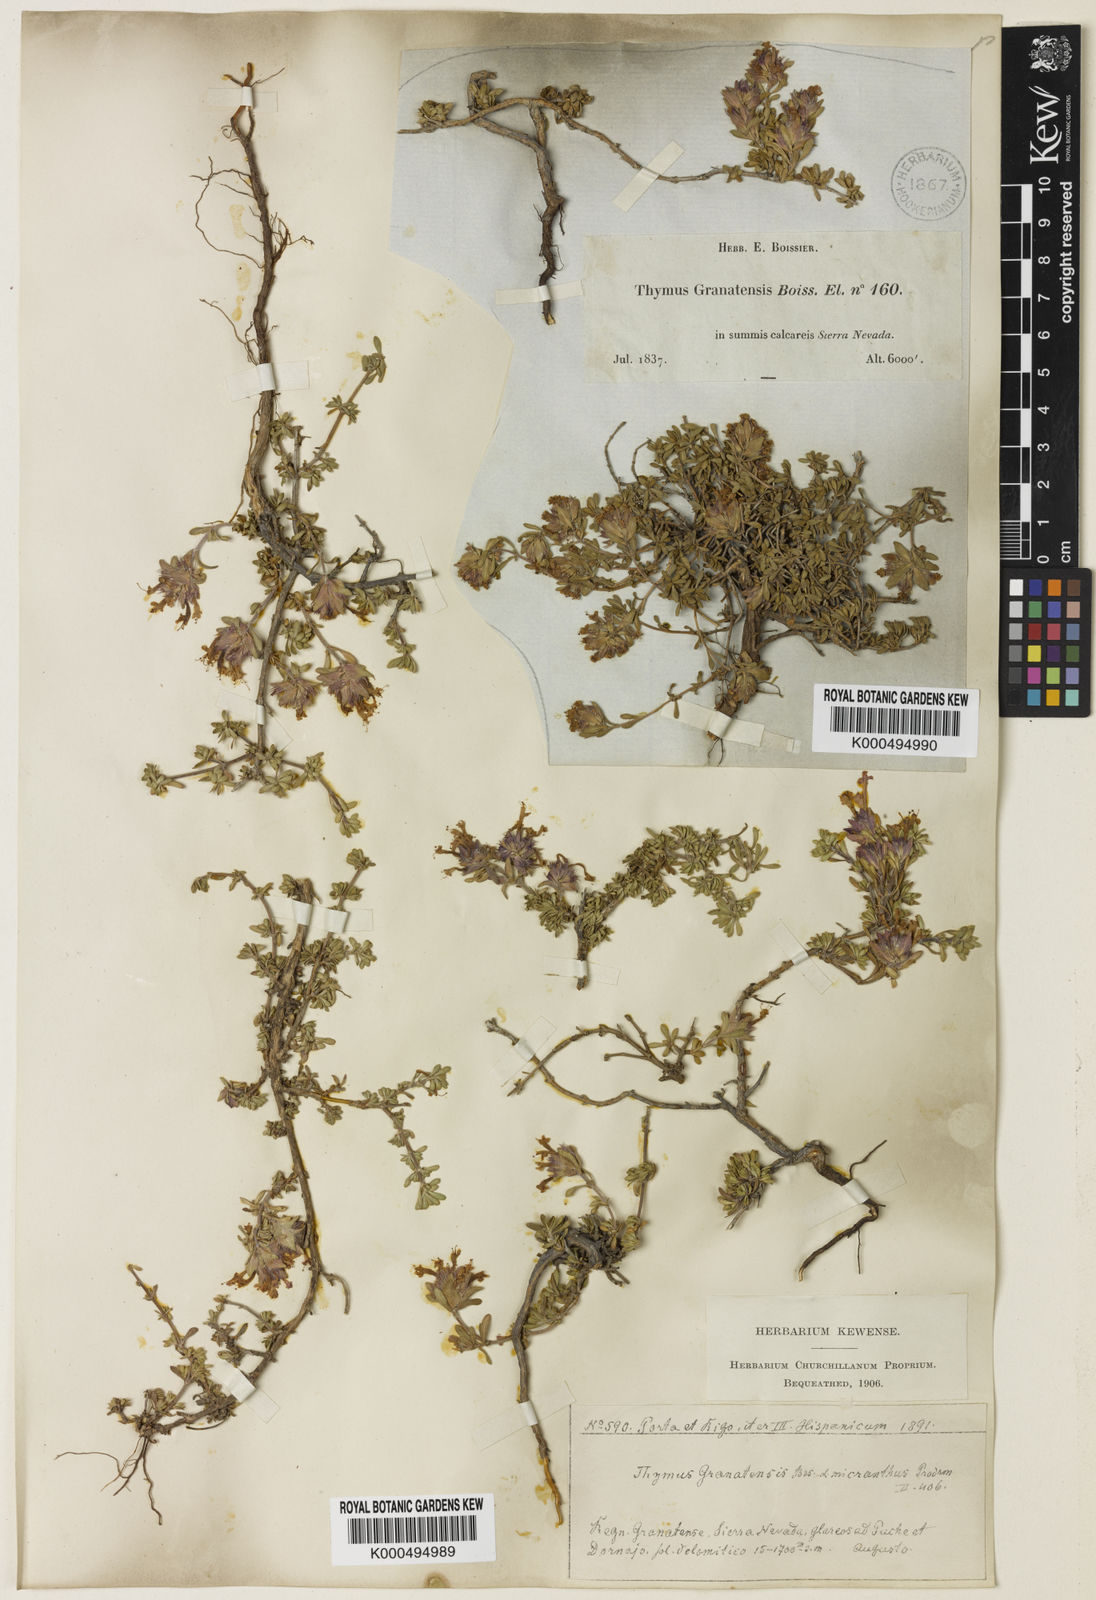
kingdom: Plantae
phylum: Tracheophyta
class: Magnoliopsida
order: Lamiales
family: Lamiaceae
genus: Thymus
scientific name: Thymus granatensis
